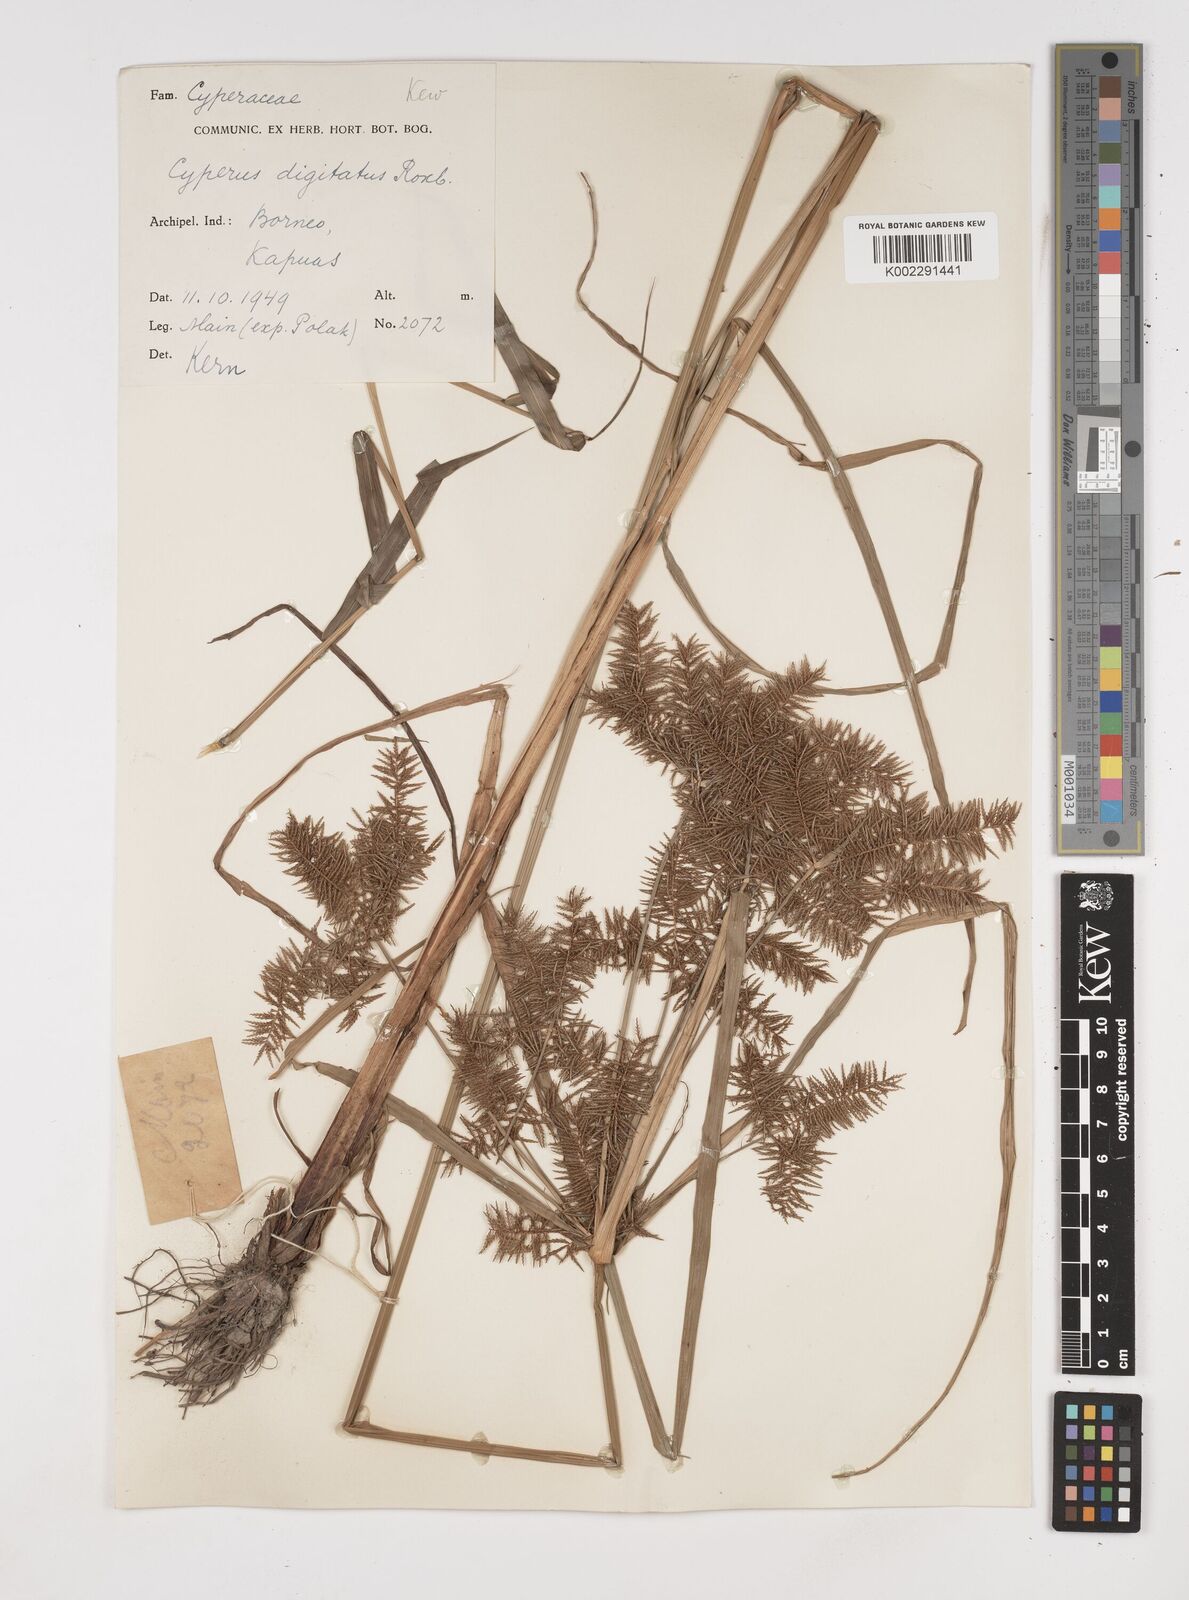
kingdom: Plantae
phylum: Tracheophyta
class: Liliopsida
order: Poales
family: Cyperaceae
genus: Cyperus
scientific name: Cyperus digitatus
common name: Finger flatsedge
